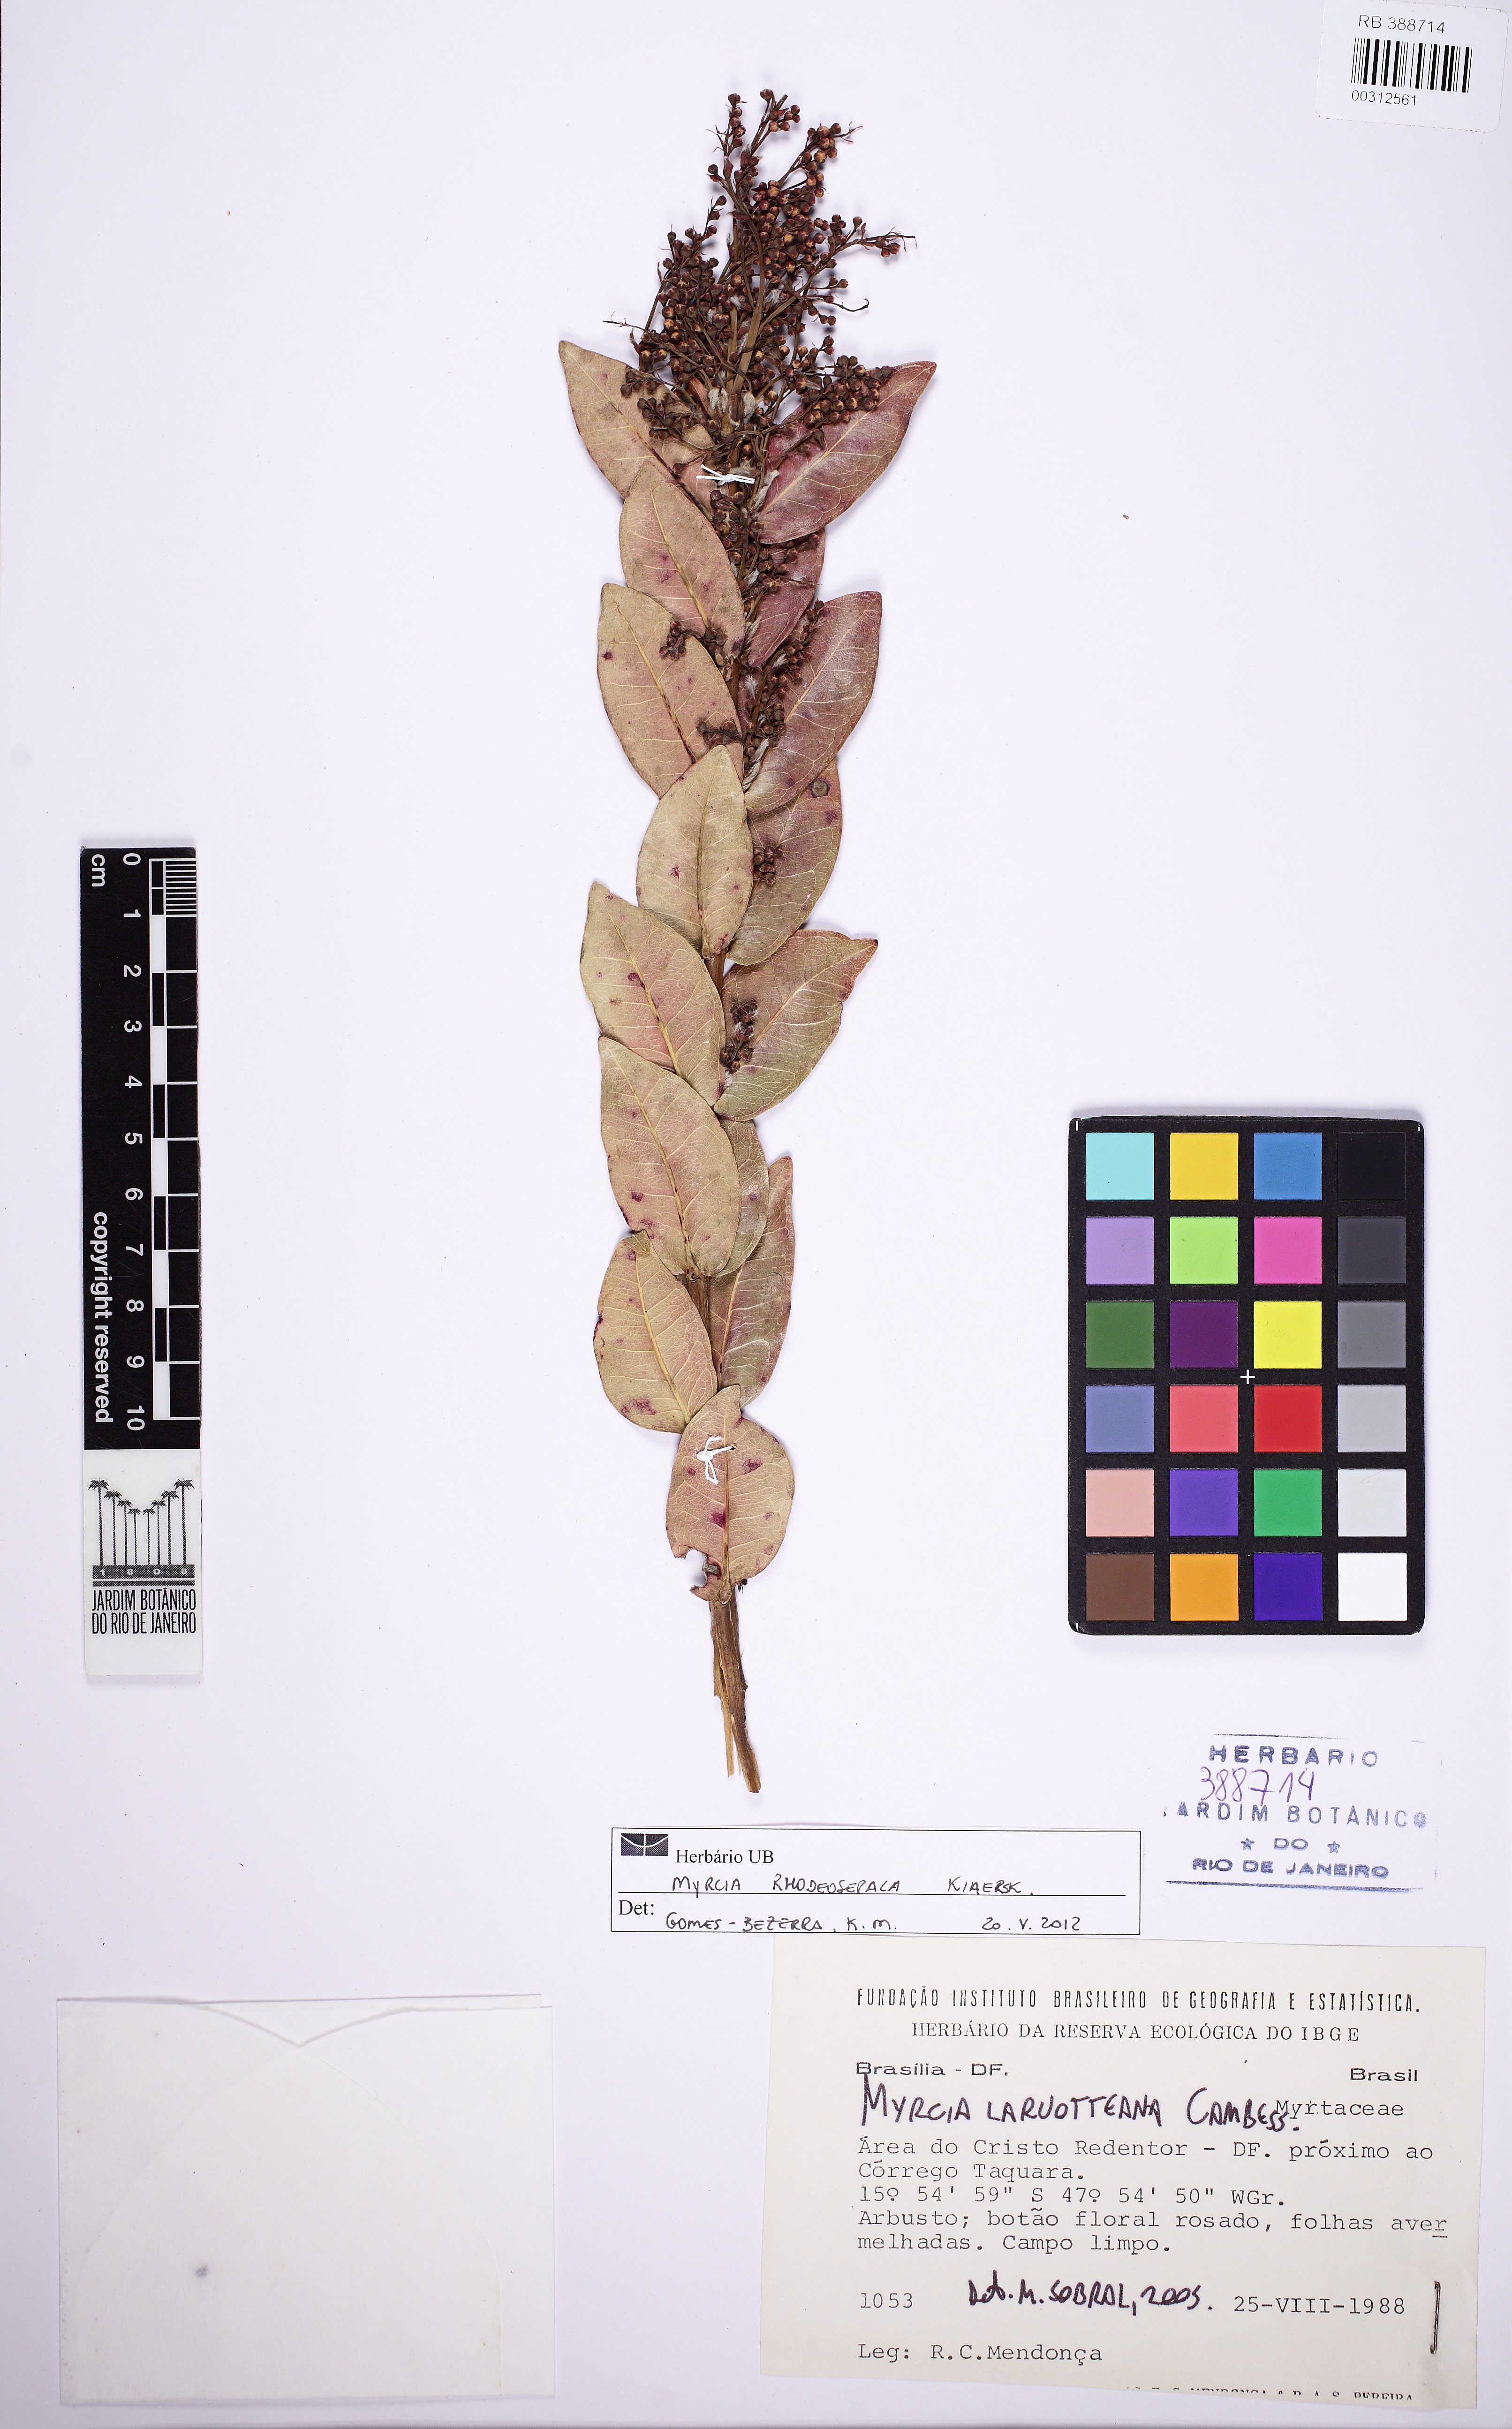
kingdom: Plantae
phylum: Tracheophyta
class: Magnoliopsida
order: Myrtales
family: Myrtaceae
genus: Myrcia
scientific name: Myrcia tomentosa
